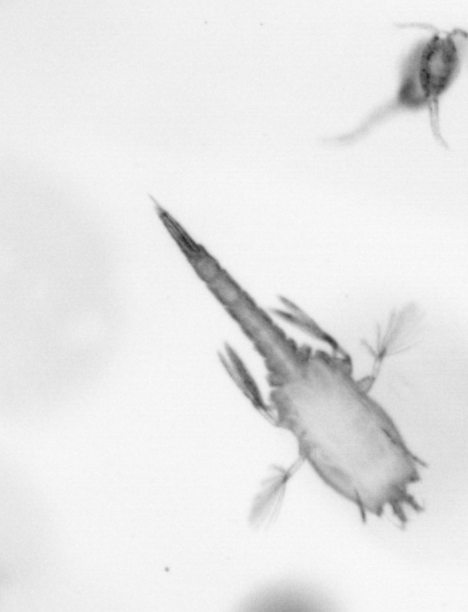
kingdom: Animalia
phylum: Arthropoda
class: Copepoda
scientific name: Copepoda
